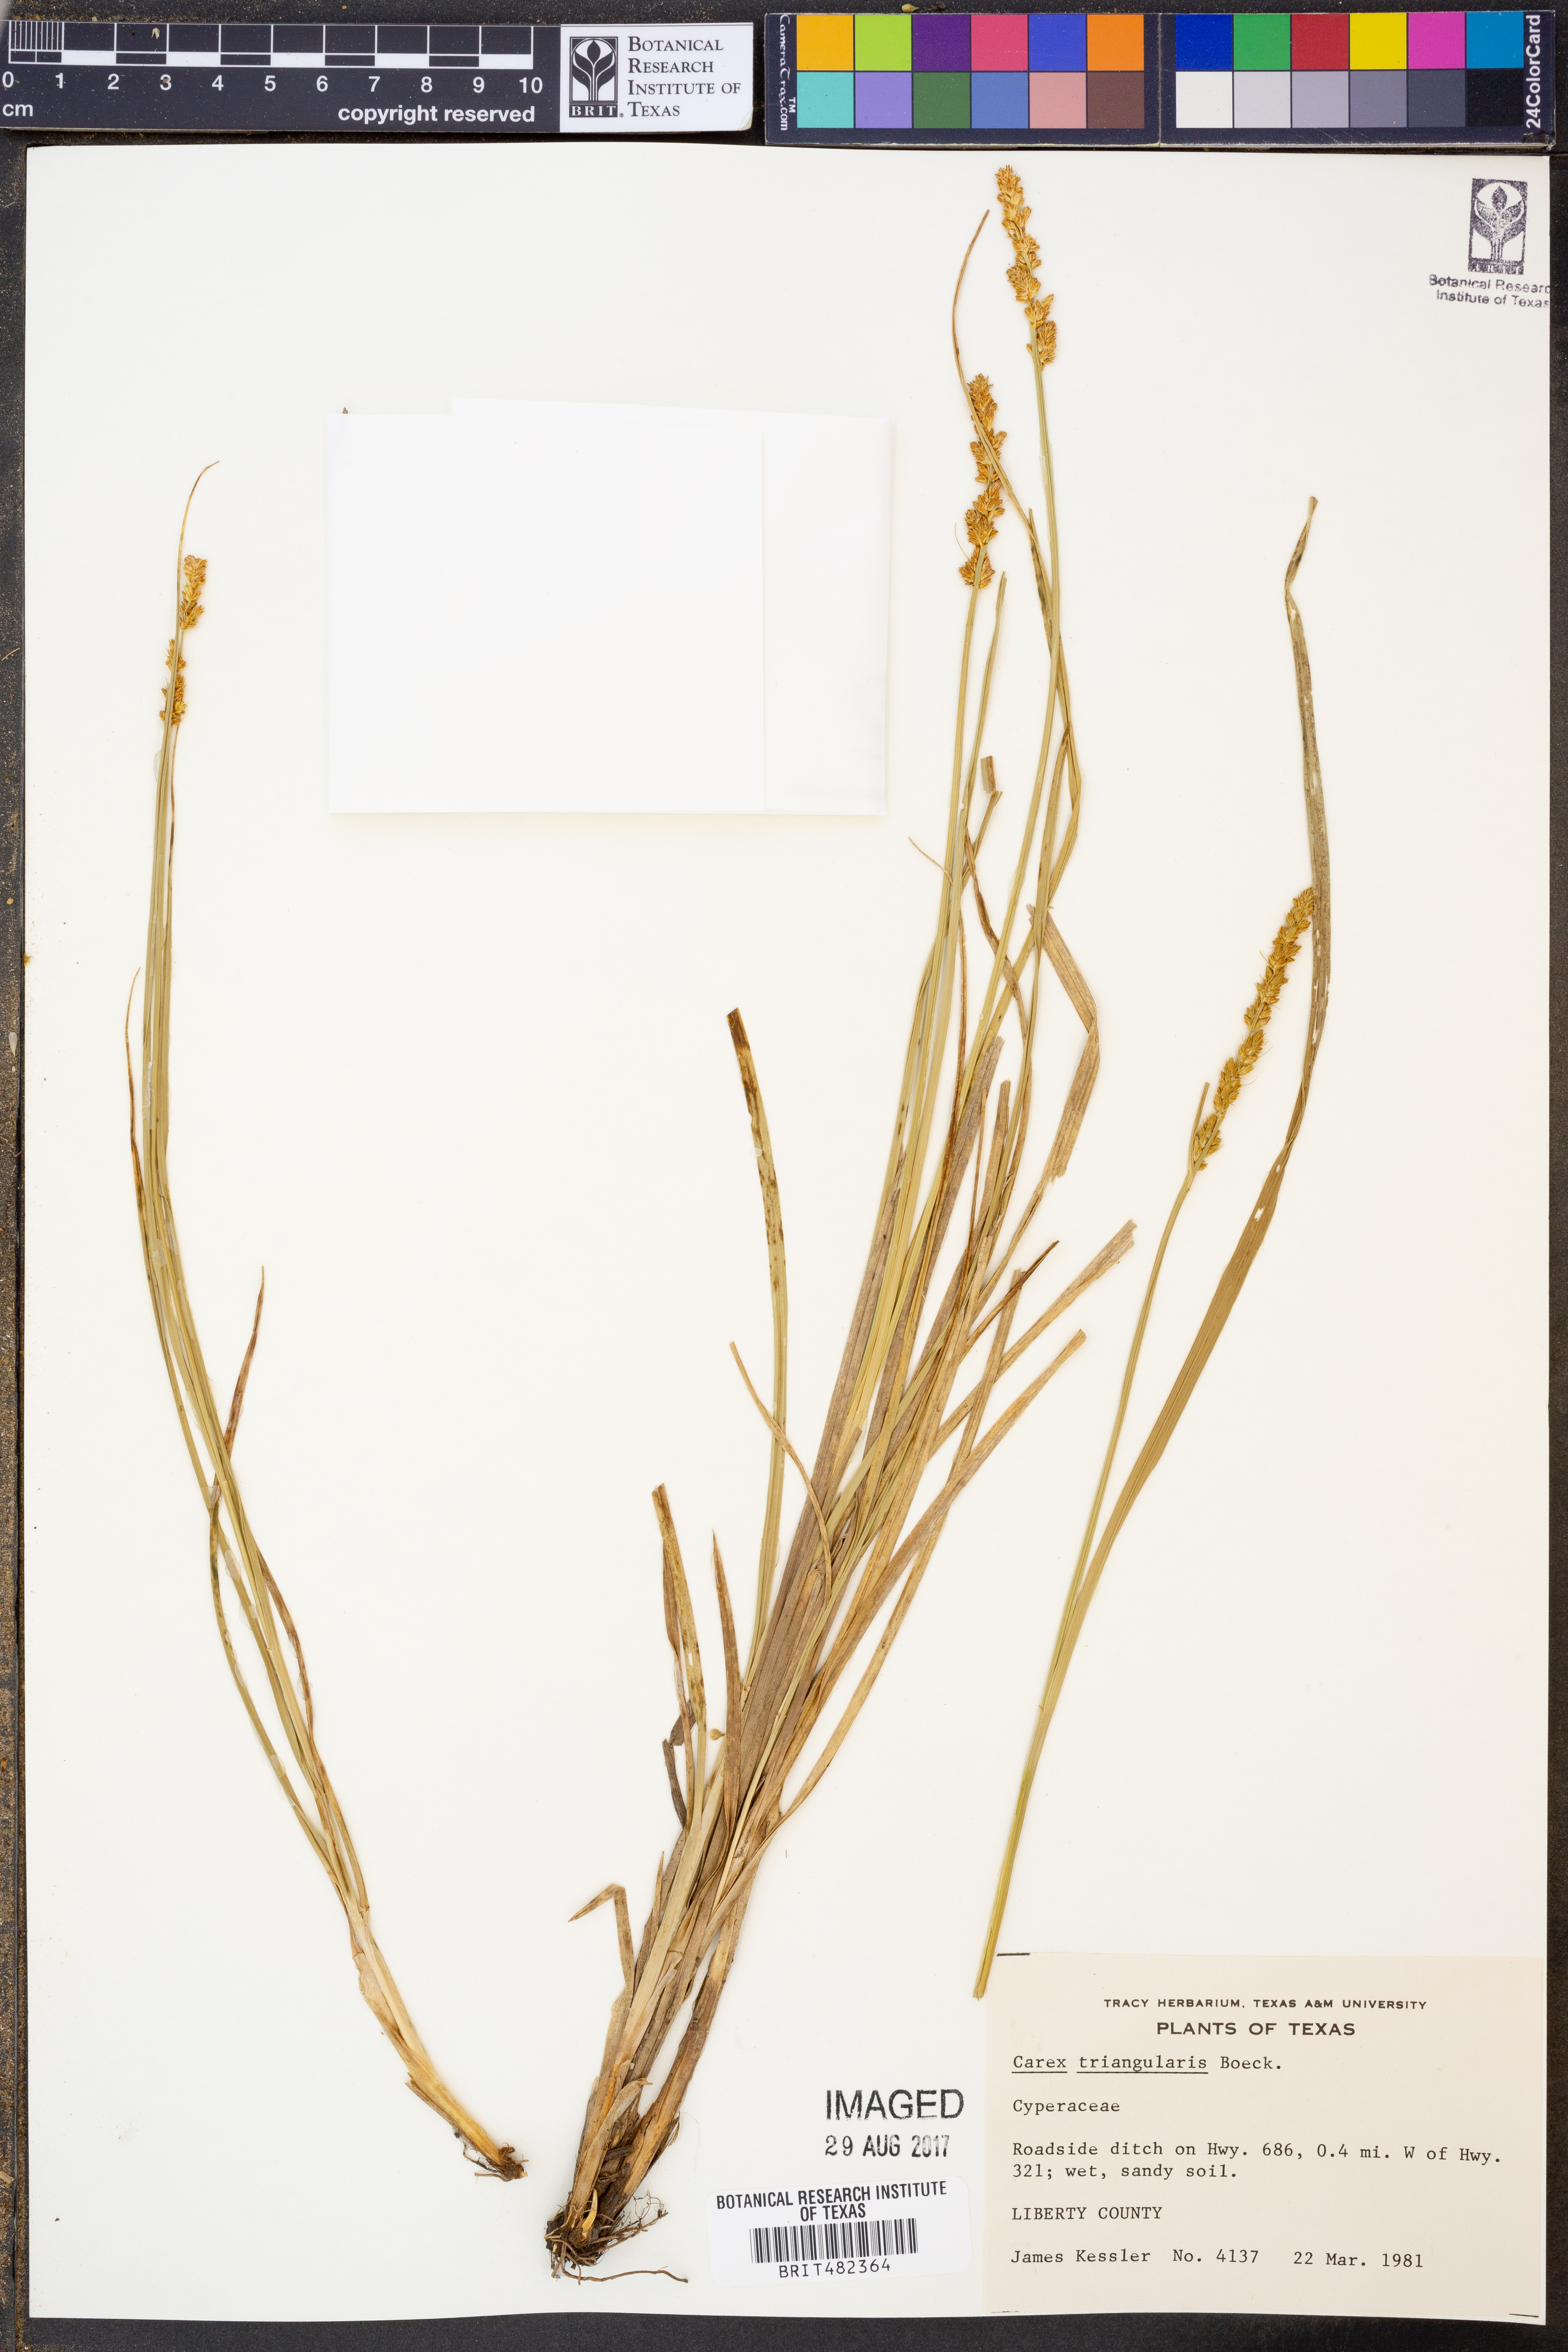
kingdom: Plantae
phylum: Tracheophyta
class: Liliopsida
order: Poales
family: Cyperaceae
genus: Carex
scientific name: Carex triangularis
